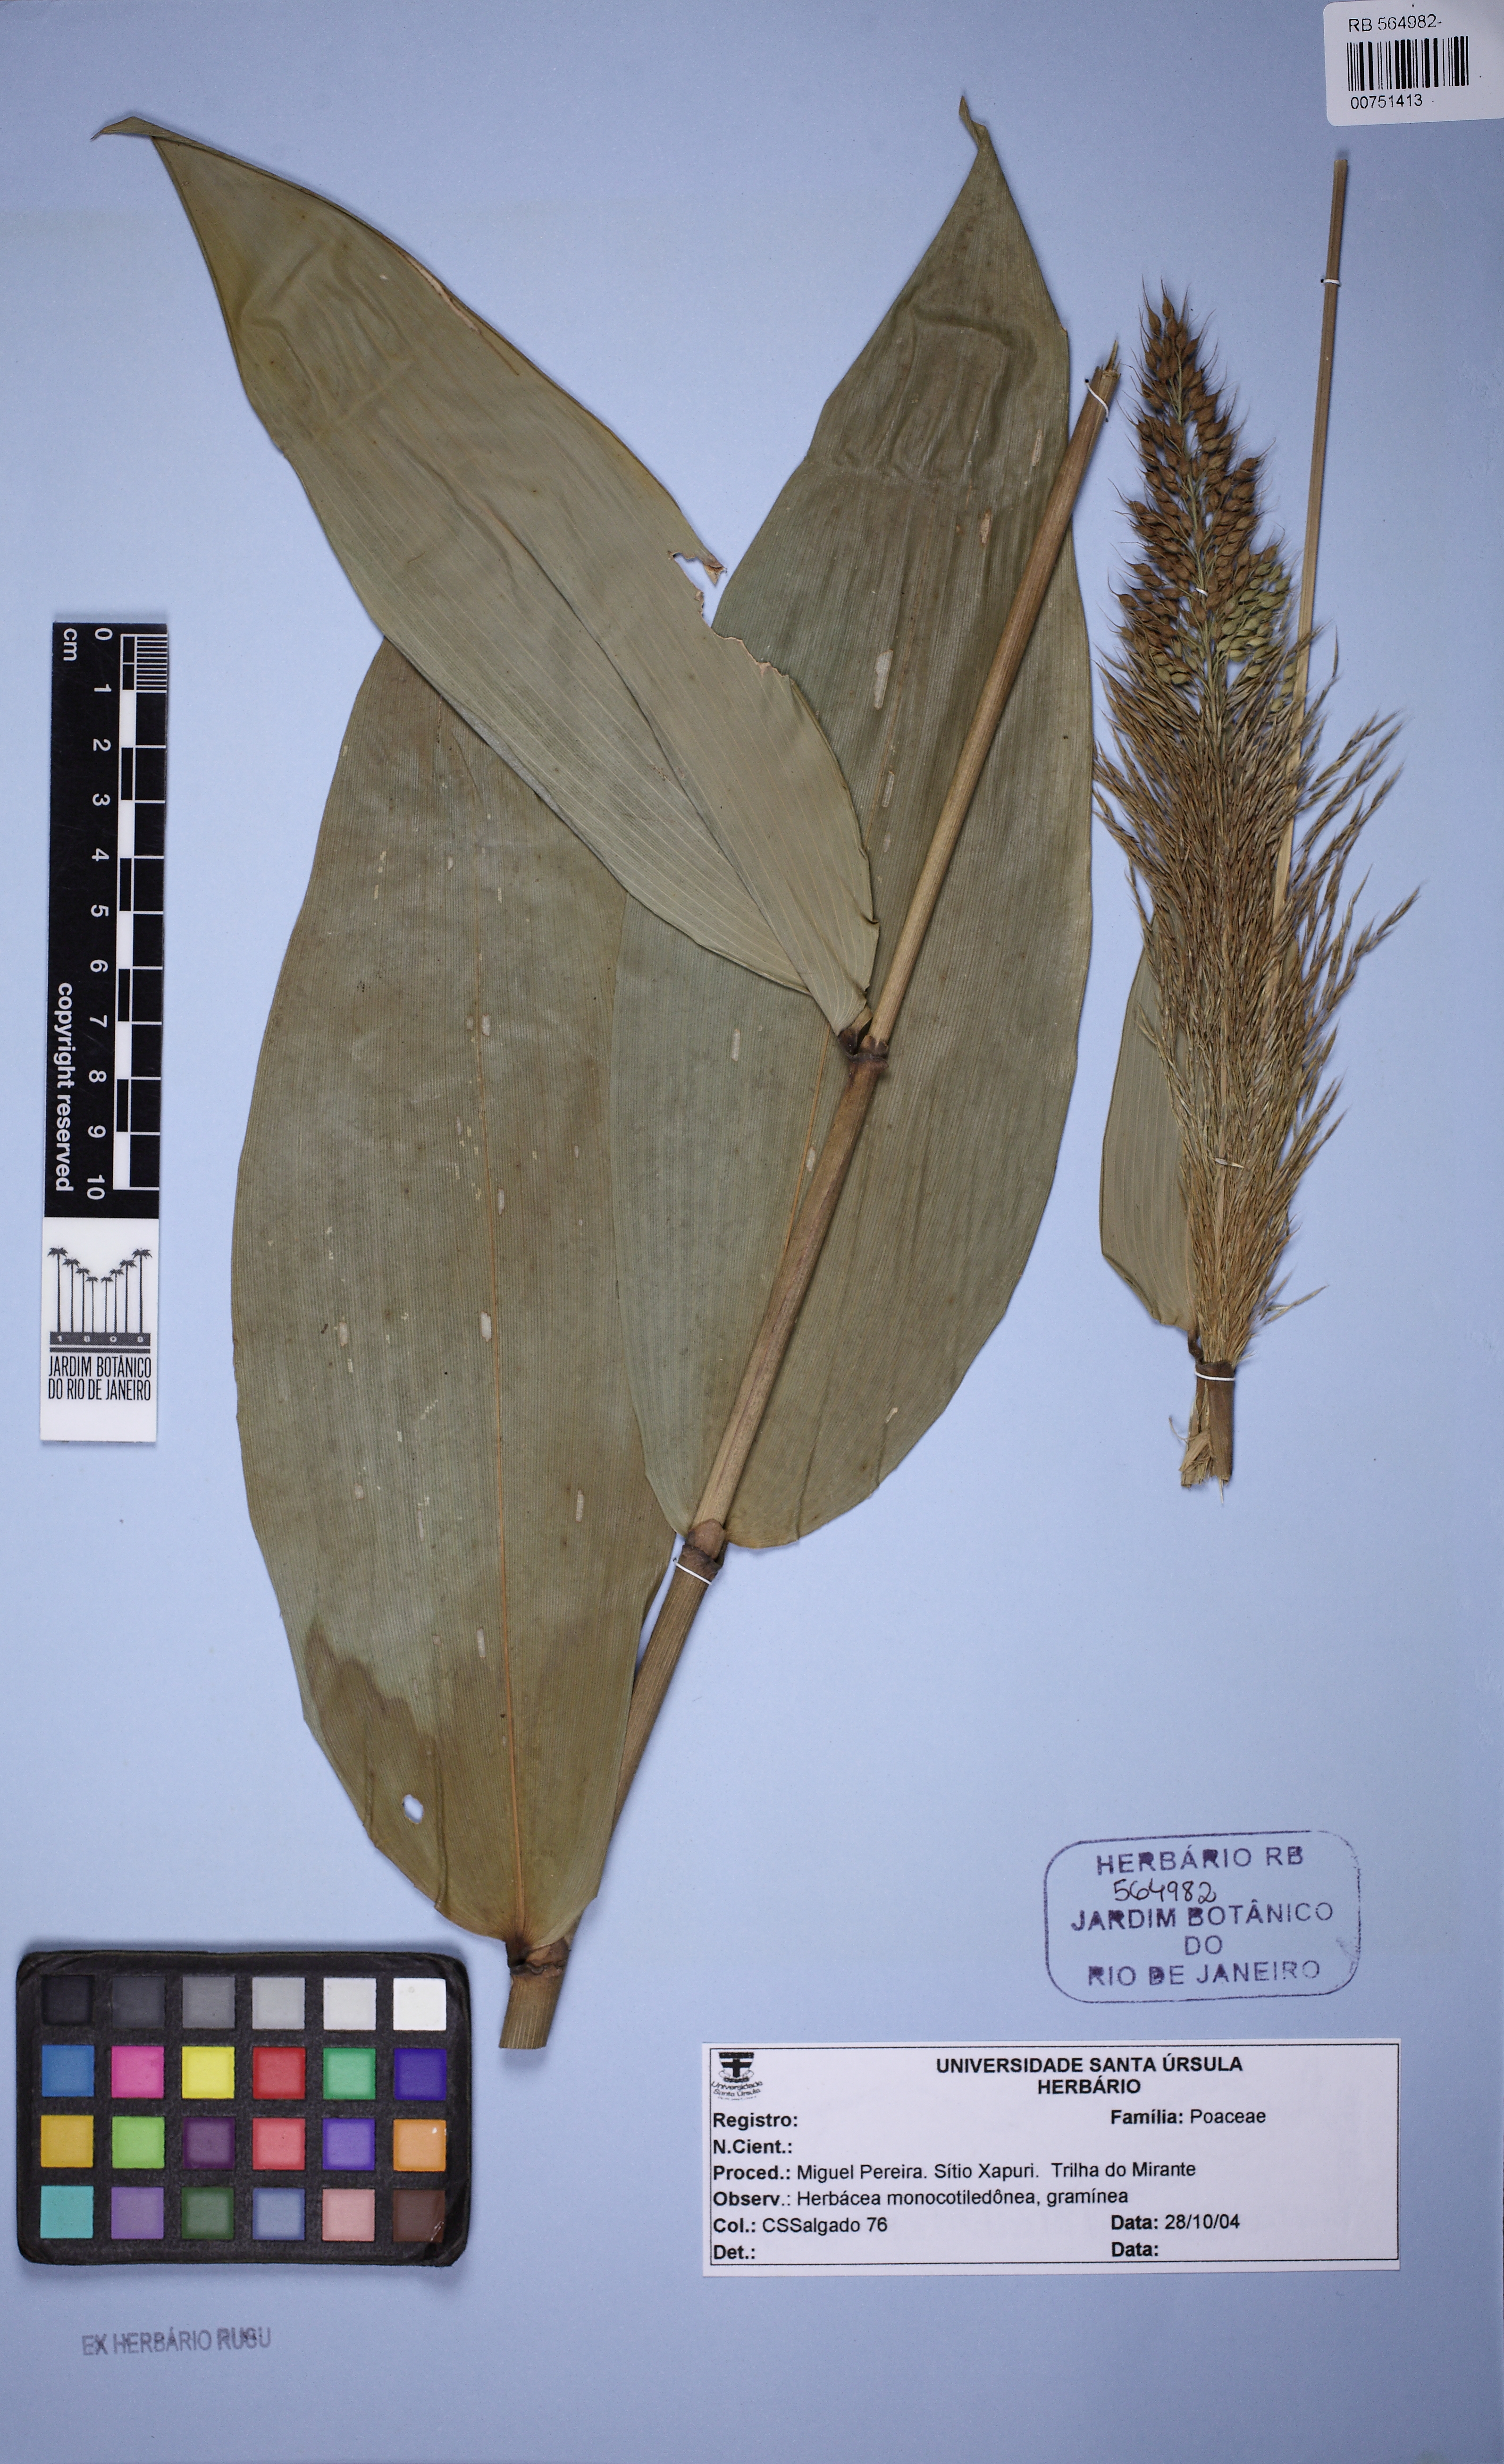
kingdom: Plantae
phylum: Tracheophyta
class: Liliopsida
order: Poales
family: Poaceae
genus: Taquara
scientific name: Taquara micrantha
